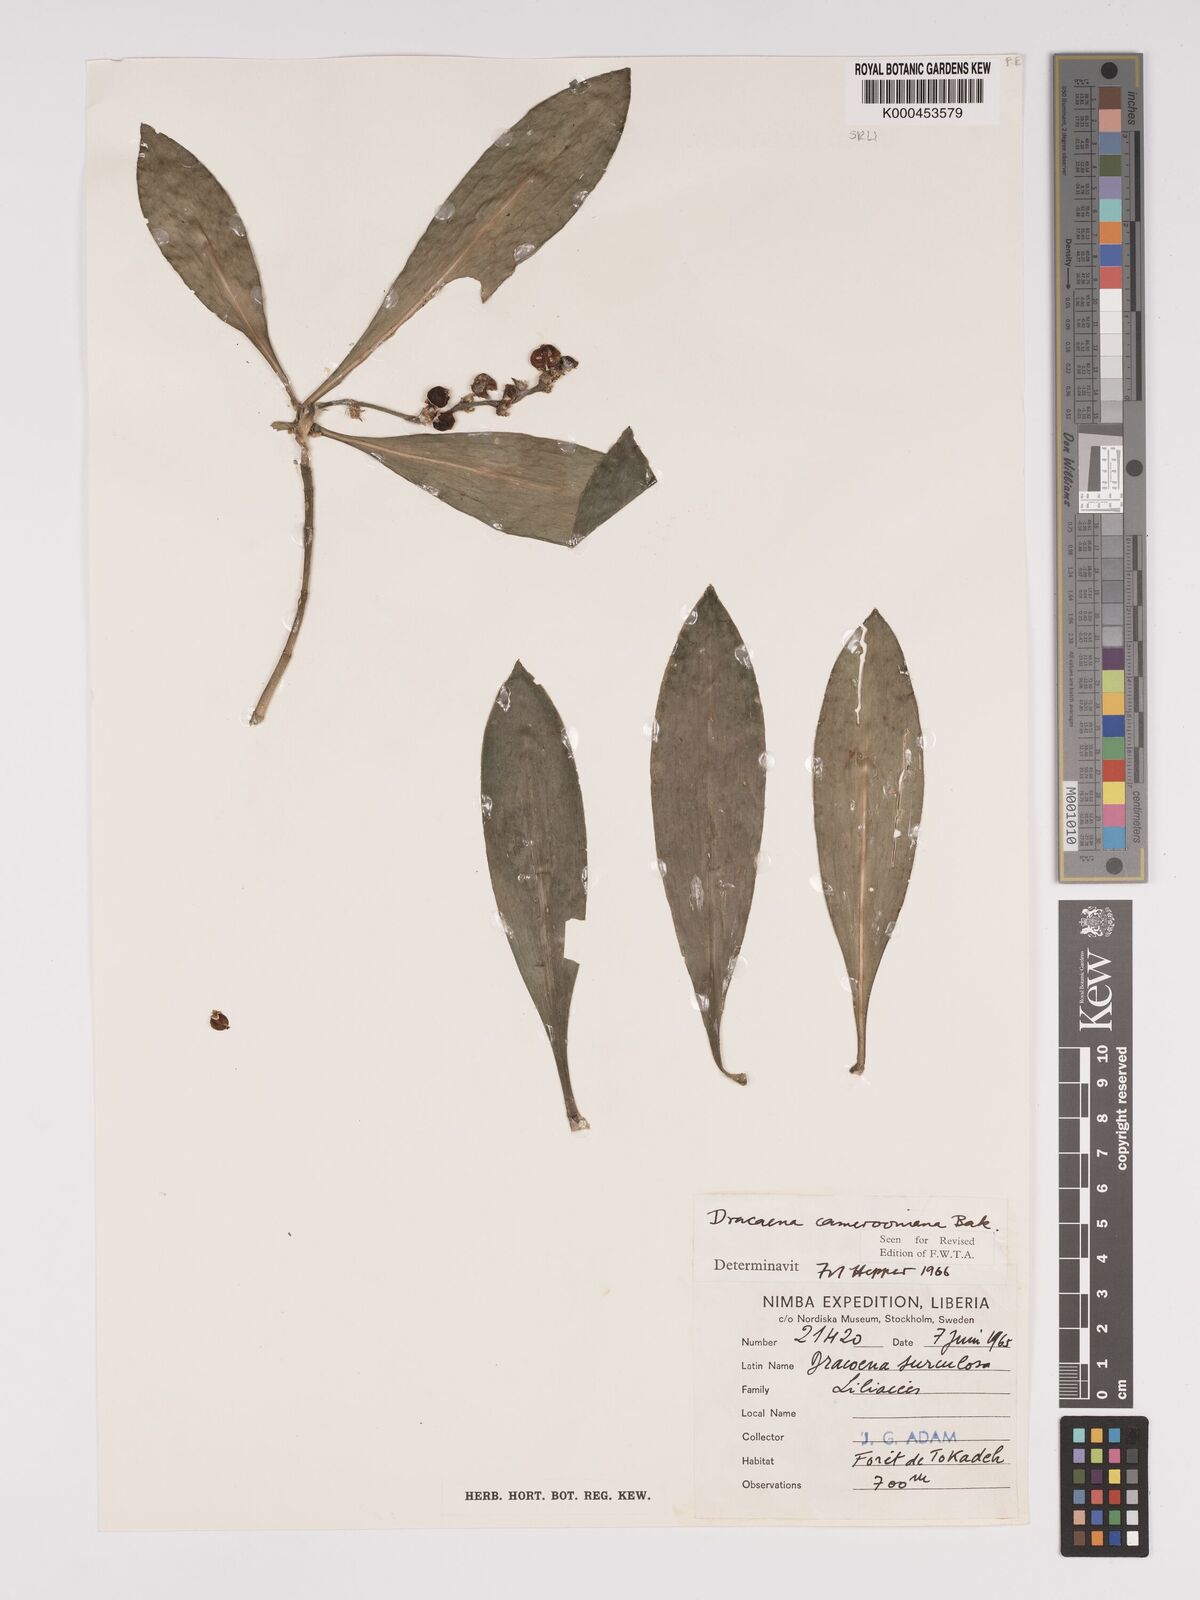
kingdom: Plantae
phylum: Tracheophyta
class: Liliopsida
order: Asparagales
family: Asparagaceae
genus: Dracaena
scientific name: Dracaena camerooniana
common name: Dragon tree
